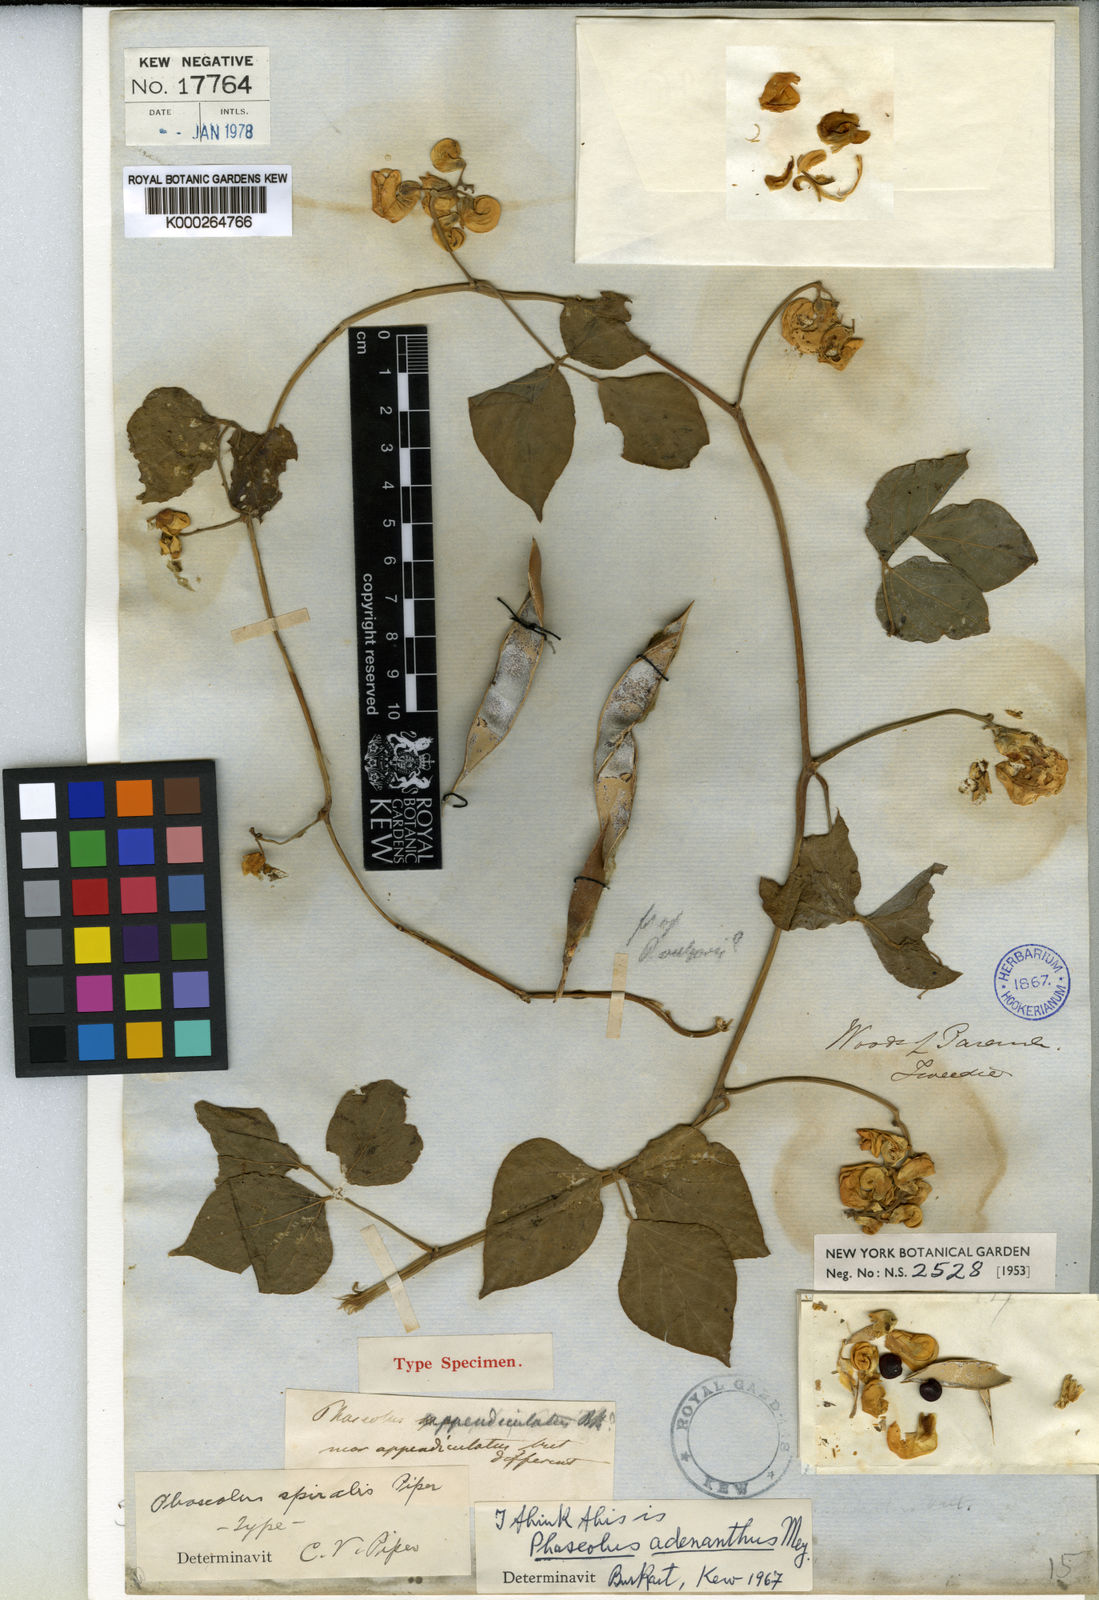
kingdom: Plantae
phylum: Tracheophyta
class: Magnoliopsida
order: Fabales
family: Fabaceae
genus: Leptospron
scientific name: Leptospron adenanthum
